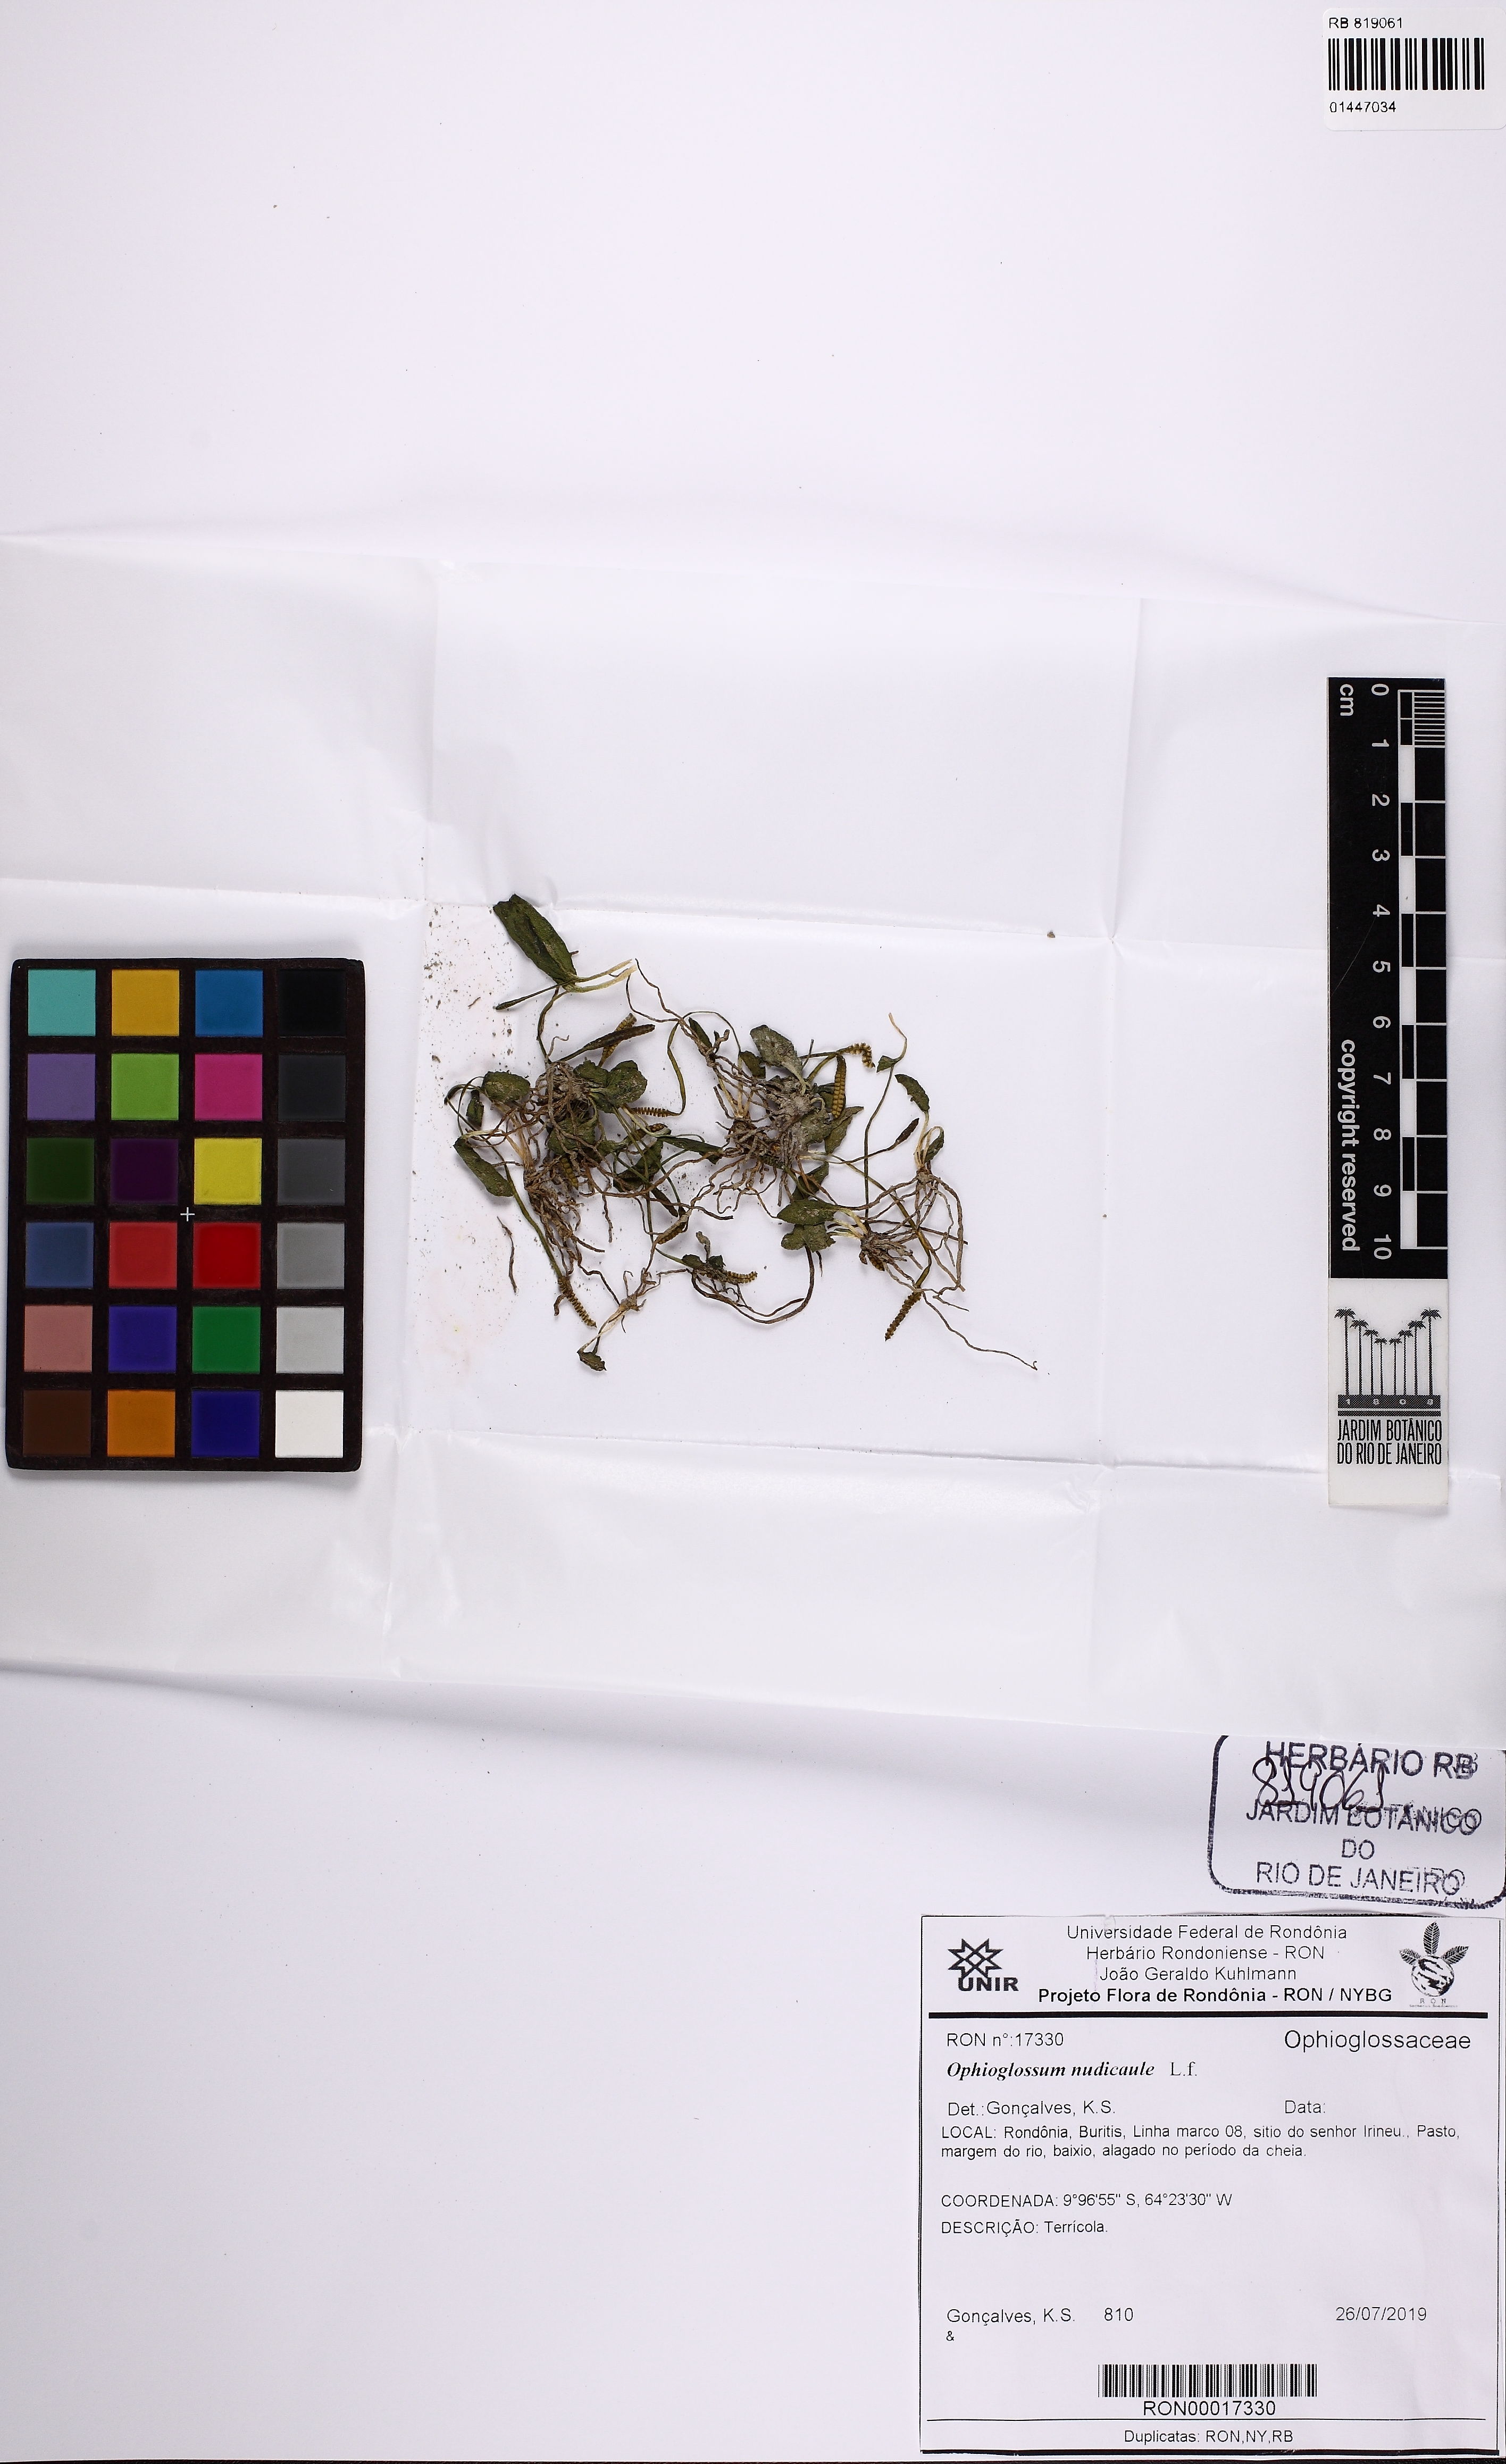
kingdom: Plantae
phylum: Tracheophyta
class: Polypodiopsida
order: Ophioglossales
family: Ophioglossaceae
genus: Ophioglossum
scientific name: Ophioglossum nudicaule
